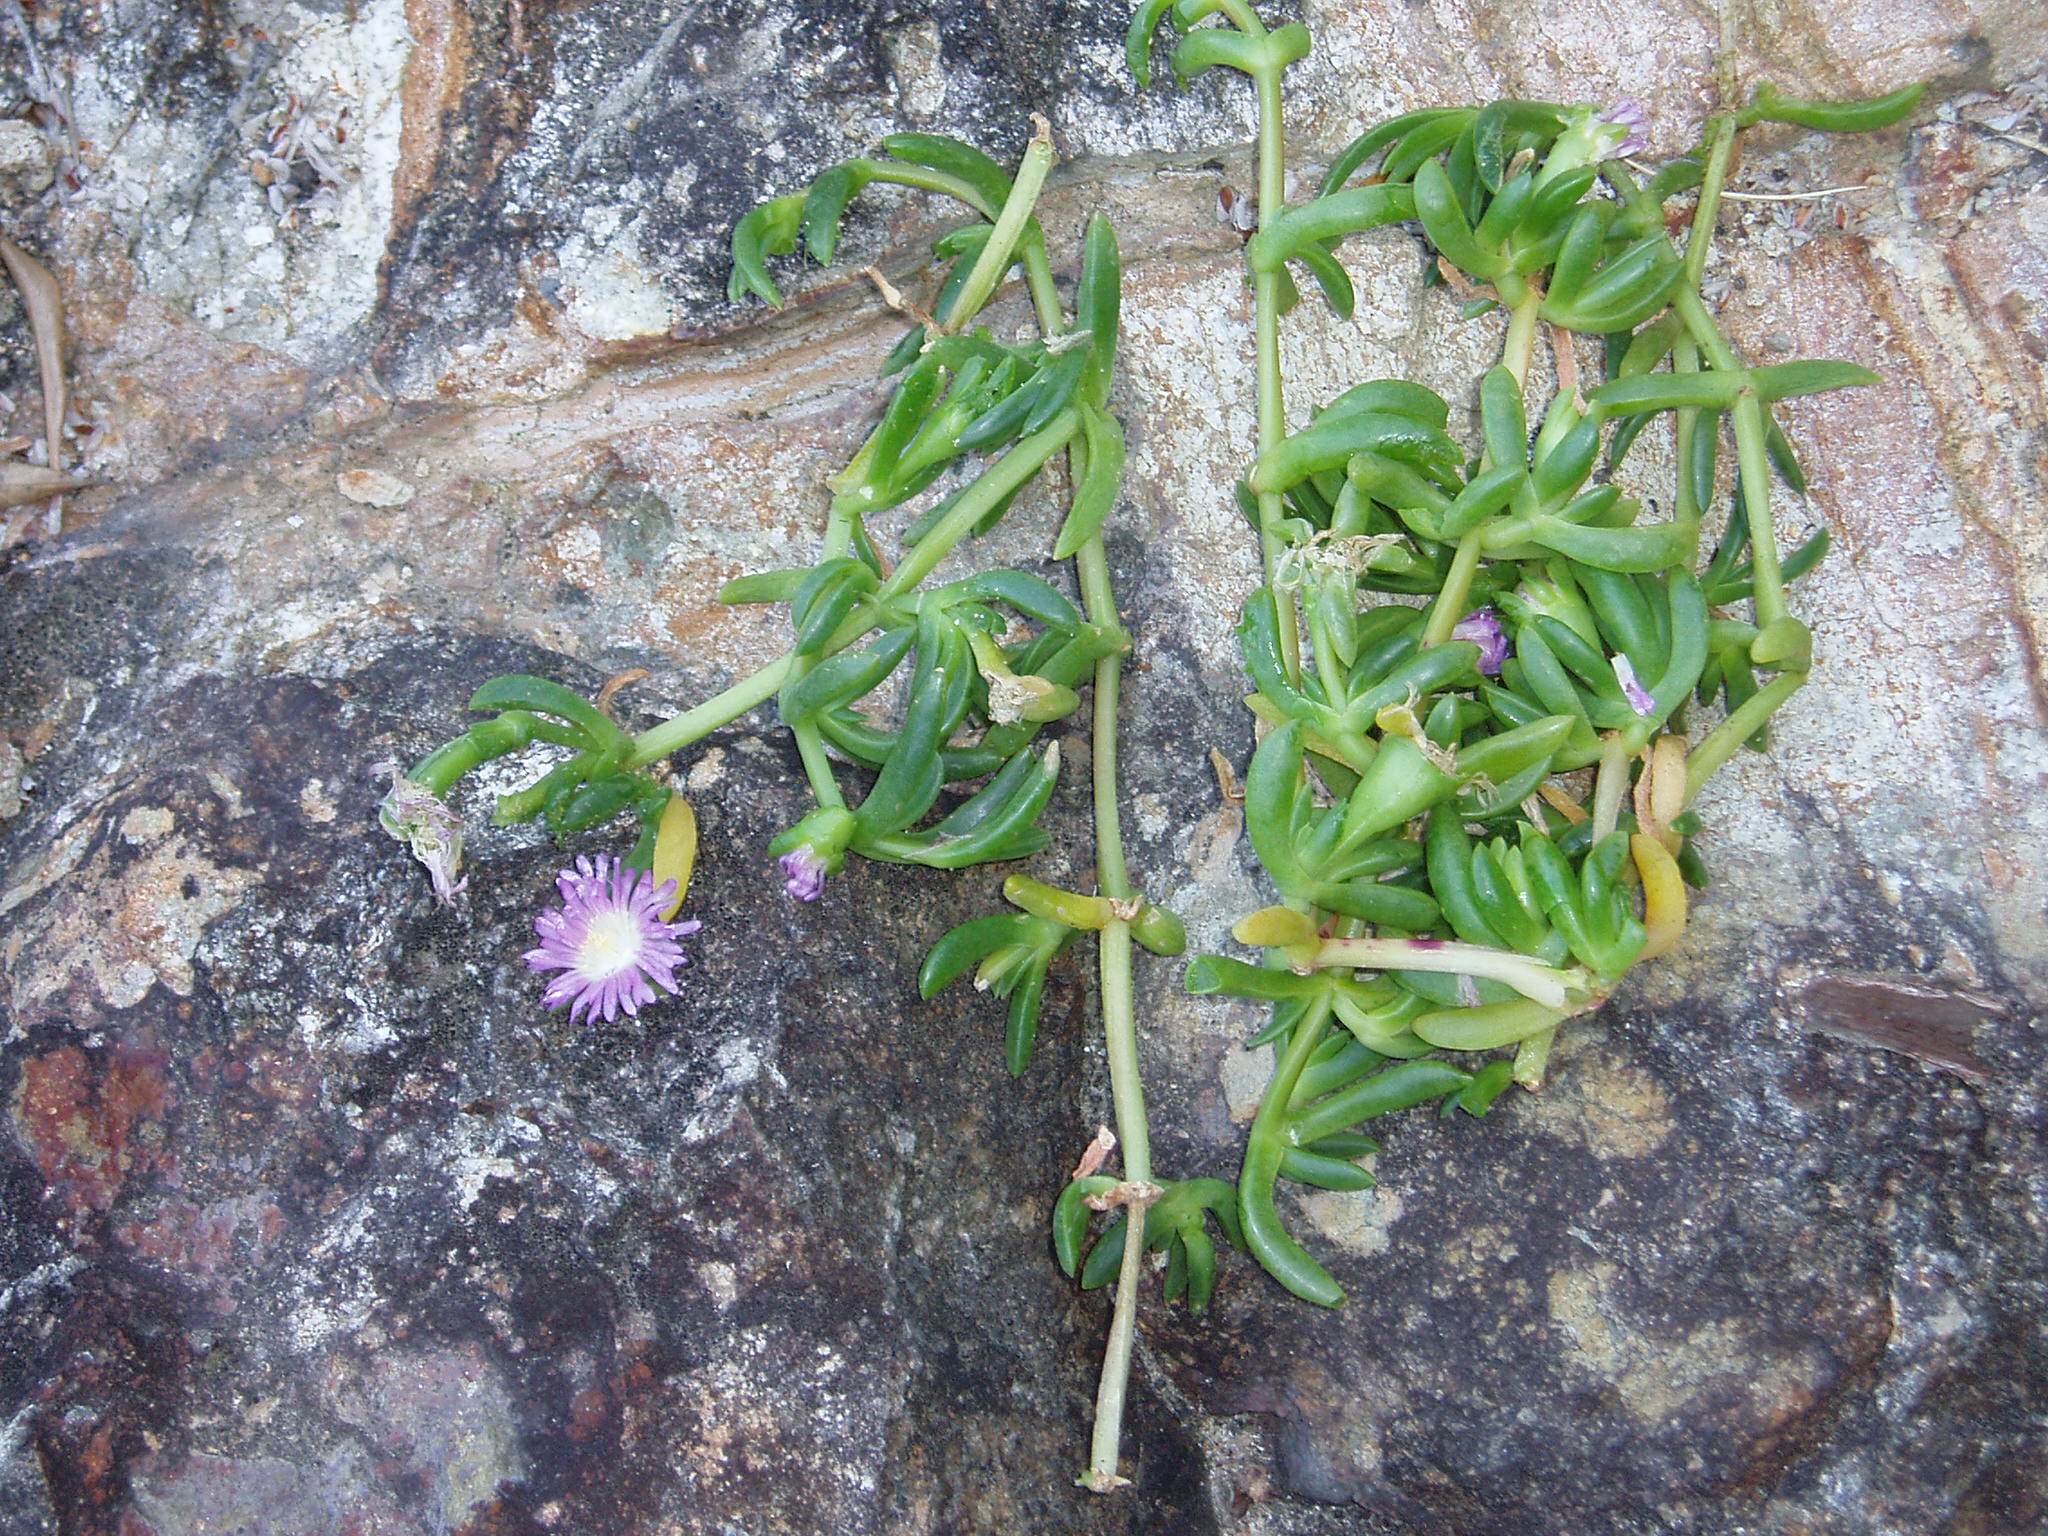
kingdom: Plantae
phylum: Tracheophyta
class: Magnoliopsida
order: Caryophyllales
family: Aizoaceae
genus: Disphyma
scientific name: Disphyma australe
